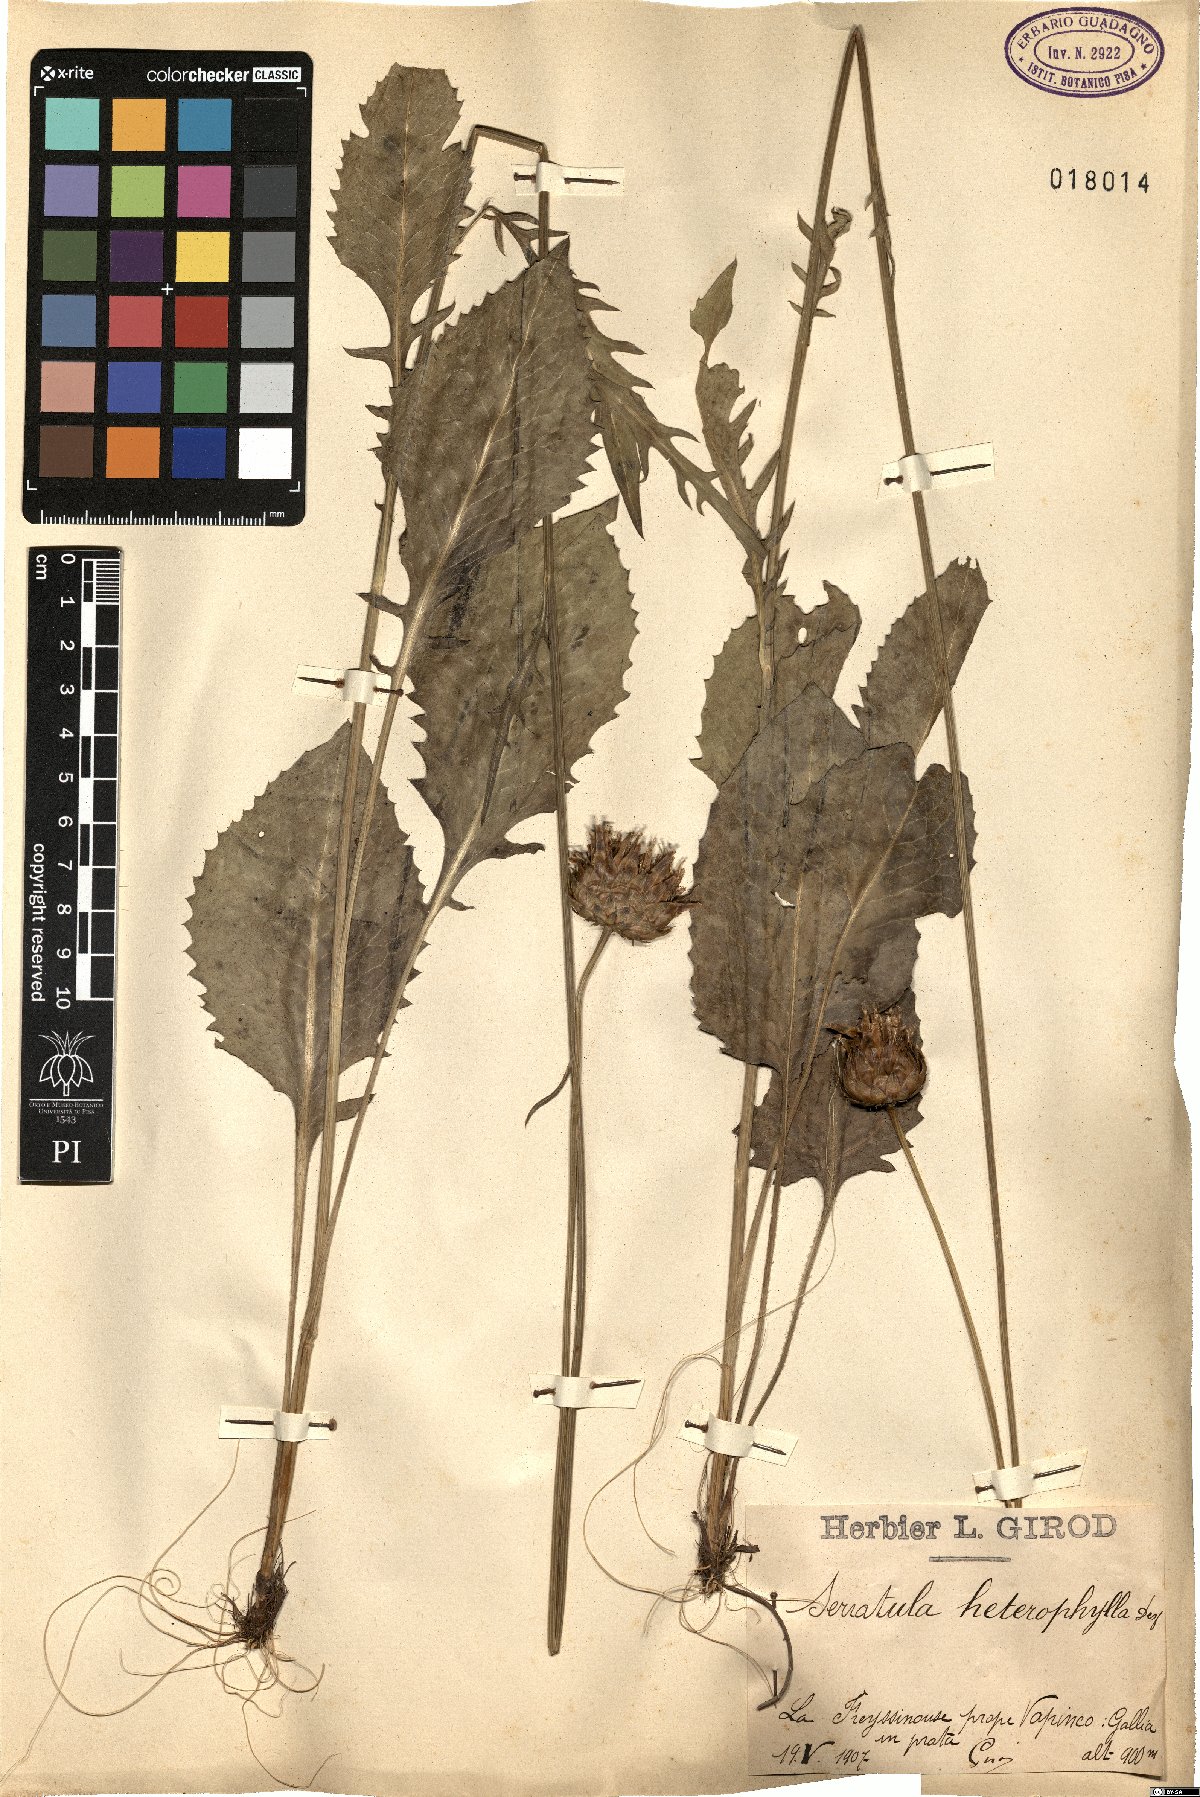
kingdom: Plantae
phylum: Tracheophyta
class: Magnoliopsida
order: Asterales
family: Asteraceae
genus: Serratula
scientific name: Serratula heterophilla
